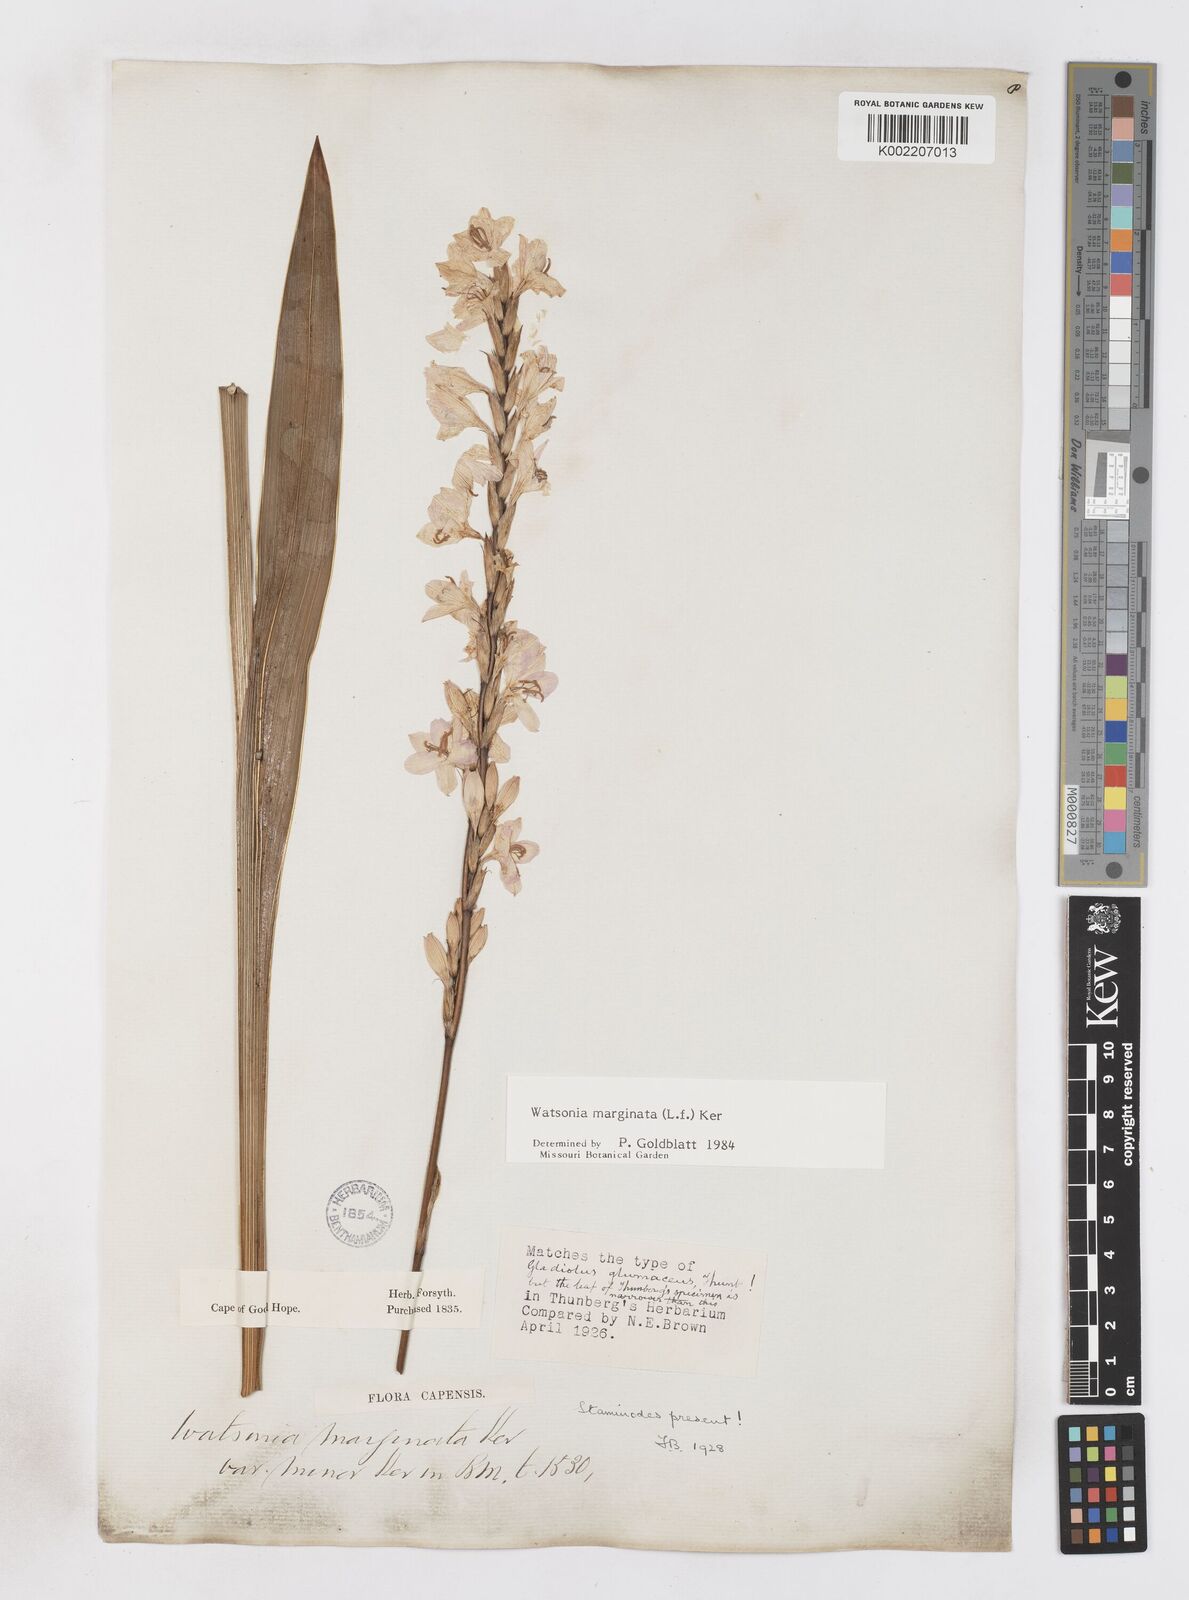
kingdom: Plantae
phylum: Tracheophyta
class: Liliopsida
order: Asparagales
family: Iridaceae
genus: Watsonia
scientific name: Watsonia marginata
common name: Fragrant bugle-lily
